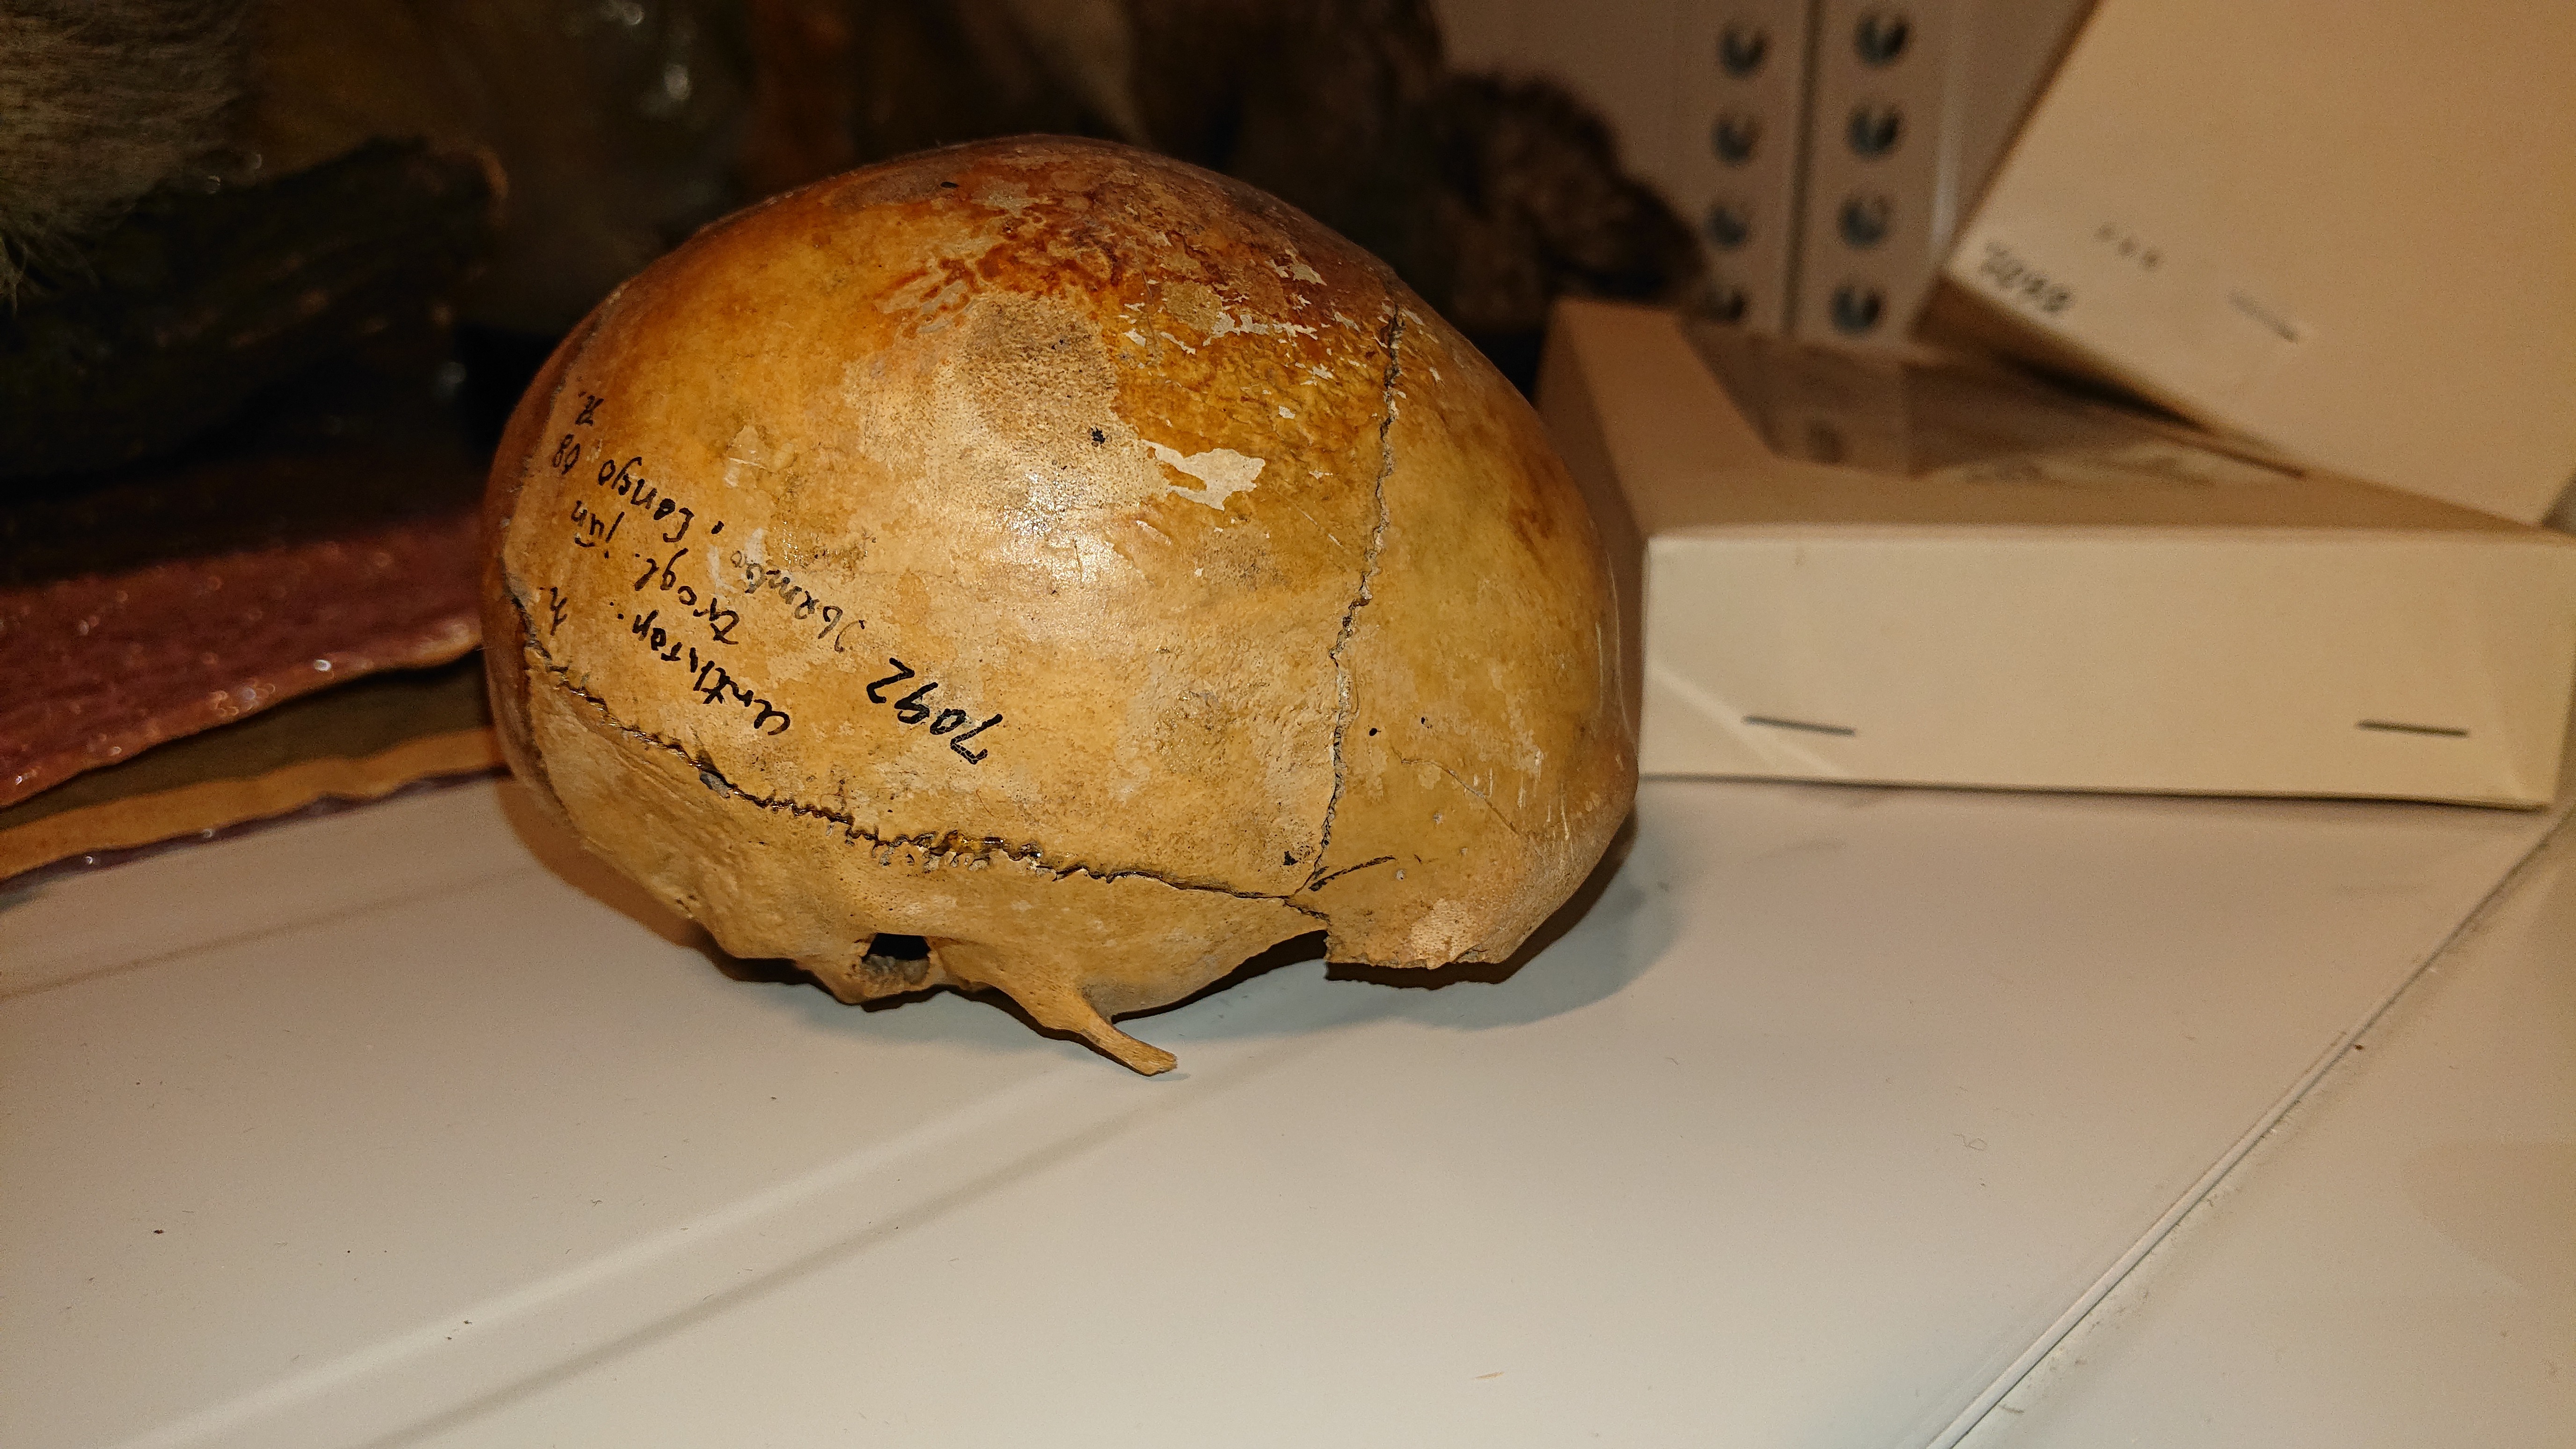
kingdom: Animalia
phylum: Chordata
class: Mammalia
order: Primates
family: Hominidae
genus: Pan
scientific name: Pan troglodytes
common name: Chimpanzee
